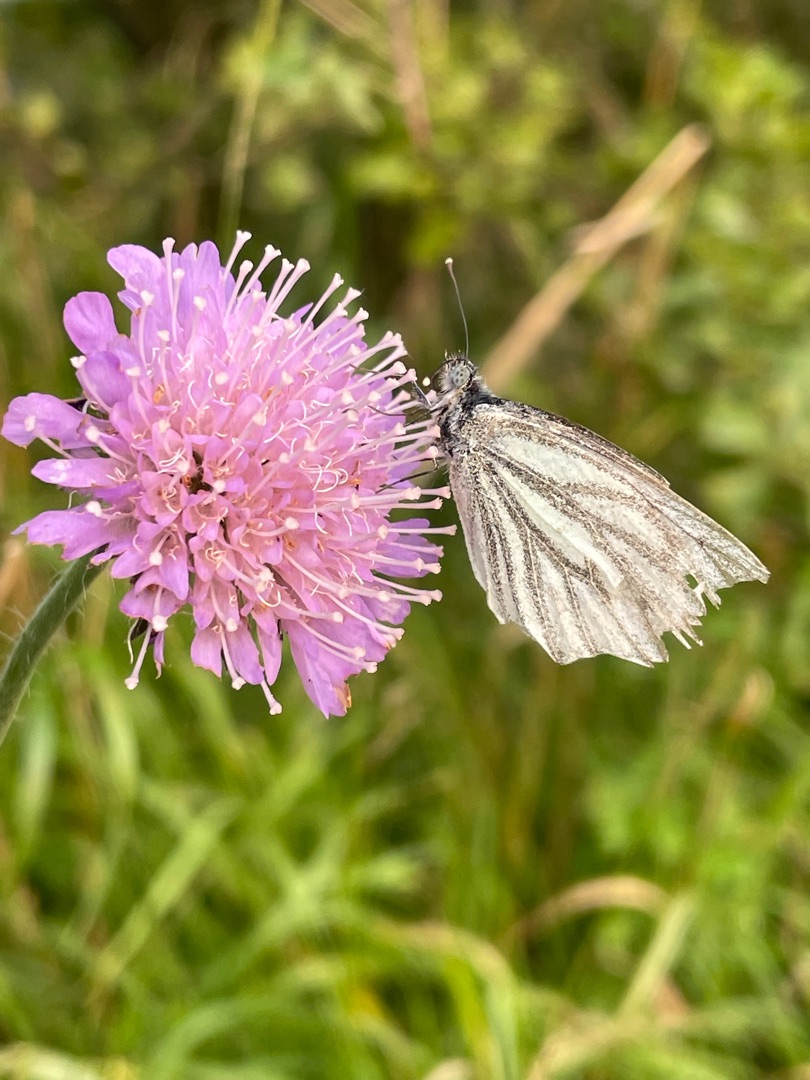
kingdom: Animalia
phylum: Arthropoda
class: Insecta
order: Lepidoptera
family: Pieridae
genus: Pieris
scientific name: Pieris napi
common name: Grønåret kålsommerfugl
